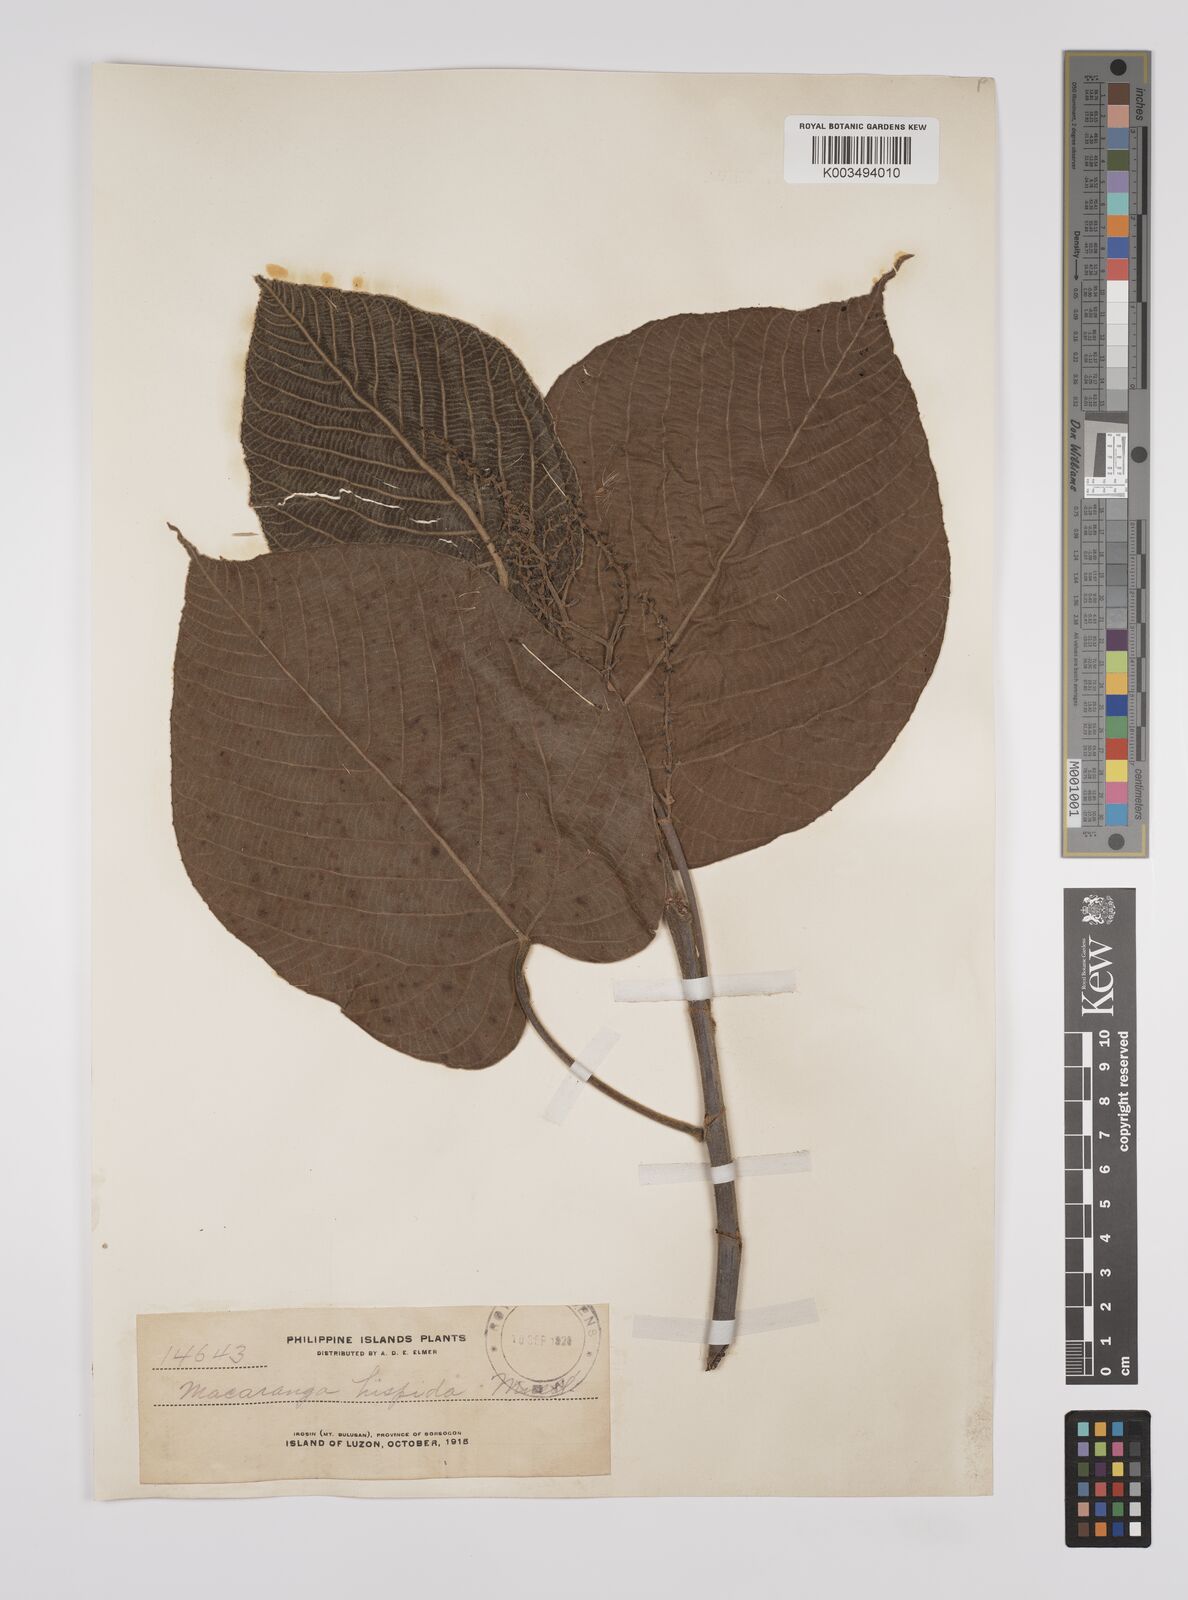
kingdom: Plantae
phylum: Tracheophyta
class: Magnoliopsida
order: Malpighiales
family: Euphorbiaceae
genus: Macaranga
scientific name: Macaranga hispida
